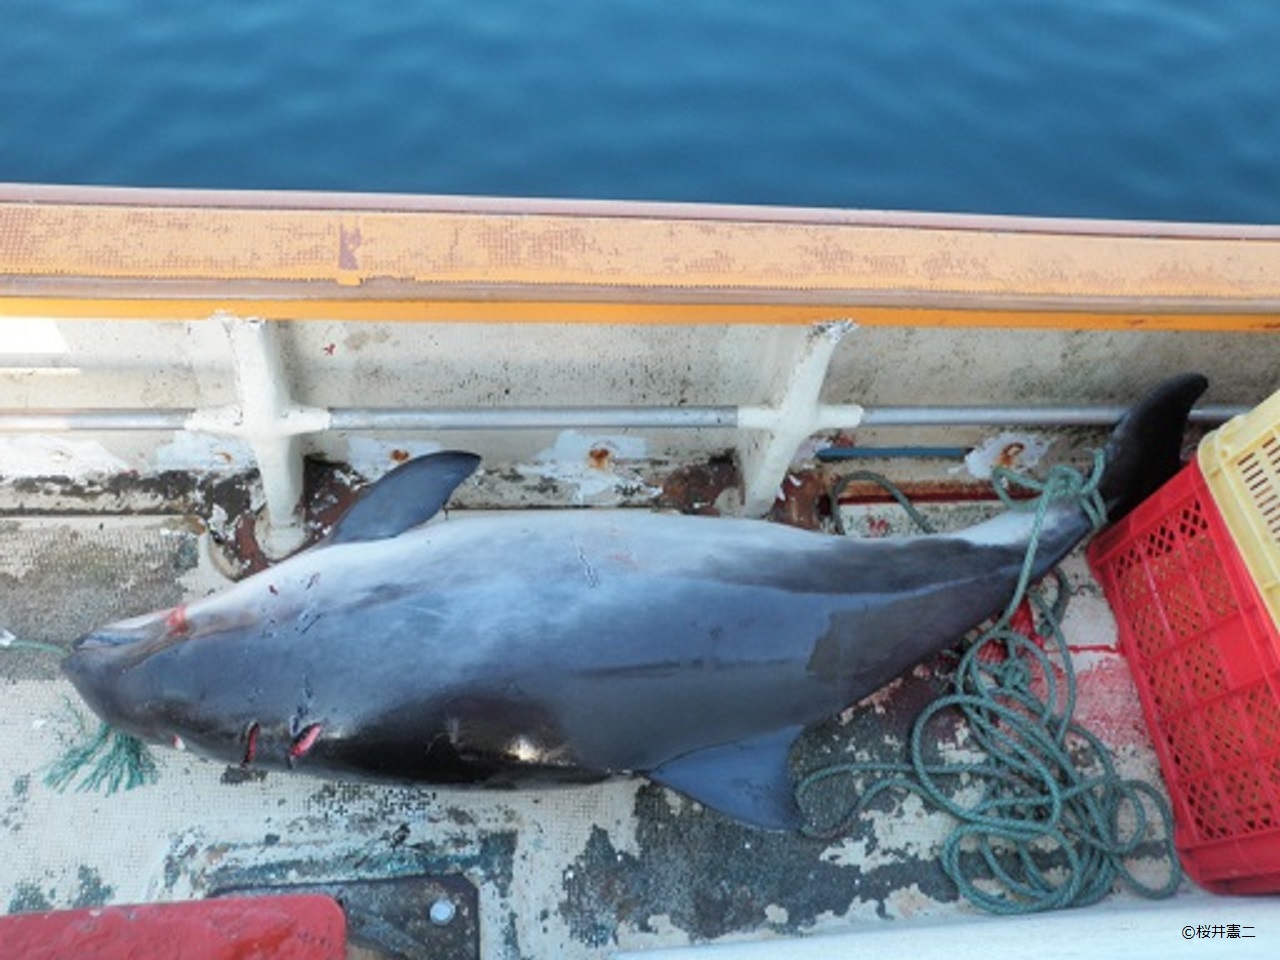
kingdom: Animalia
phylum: Chordata
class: Mammalia
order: Cetacea
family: Phocoenidae
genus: Phocoena
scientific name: Phocoena phocoena
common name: Harbour porpoise
